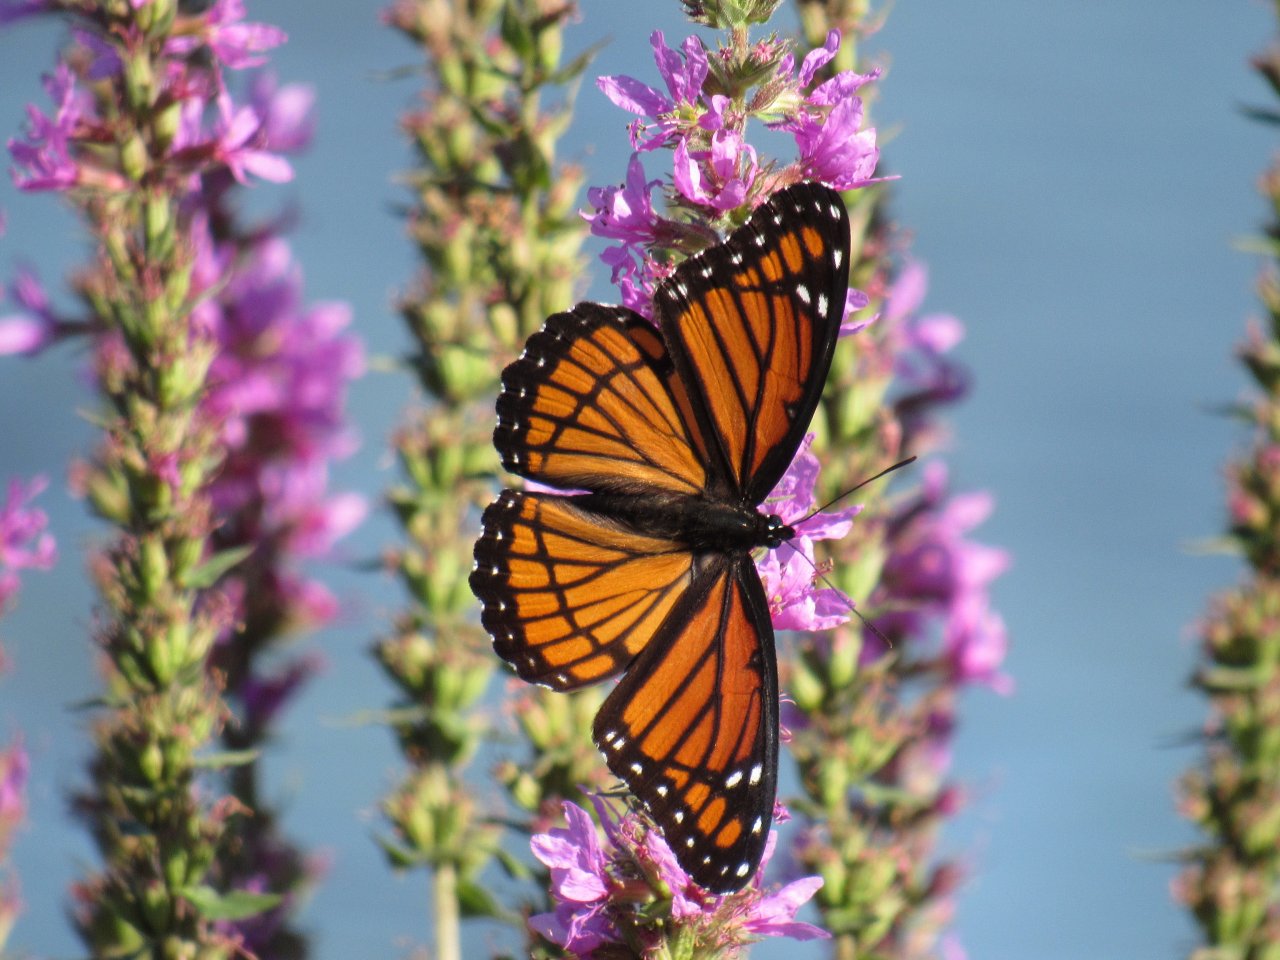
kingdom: Animalia
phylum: Arthropoda
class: Insecta
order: Lepidoptera
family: Nymphalidae
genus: Limenitis
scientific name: Limenitis archippus
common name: Viceroy
